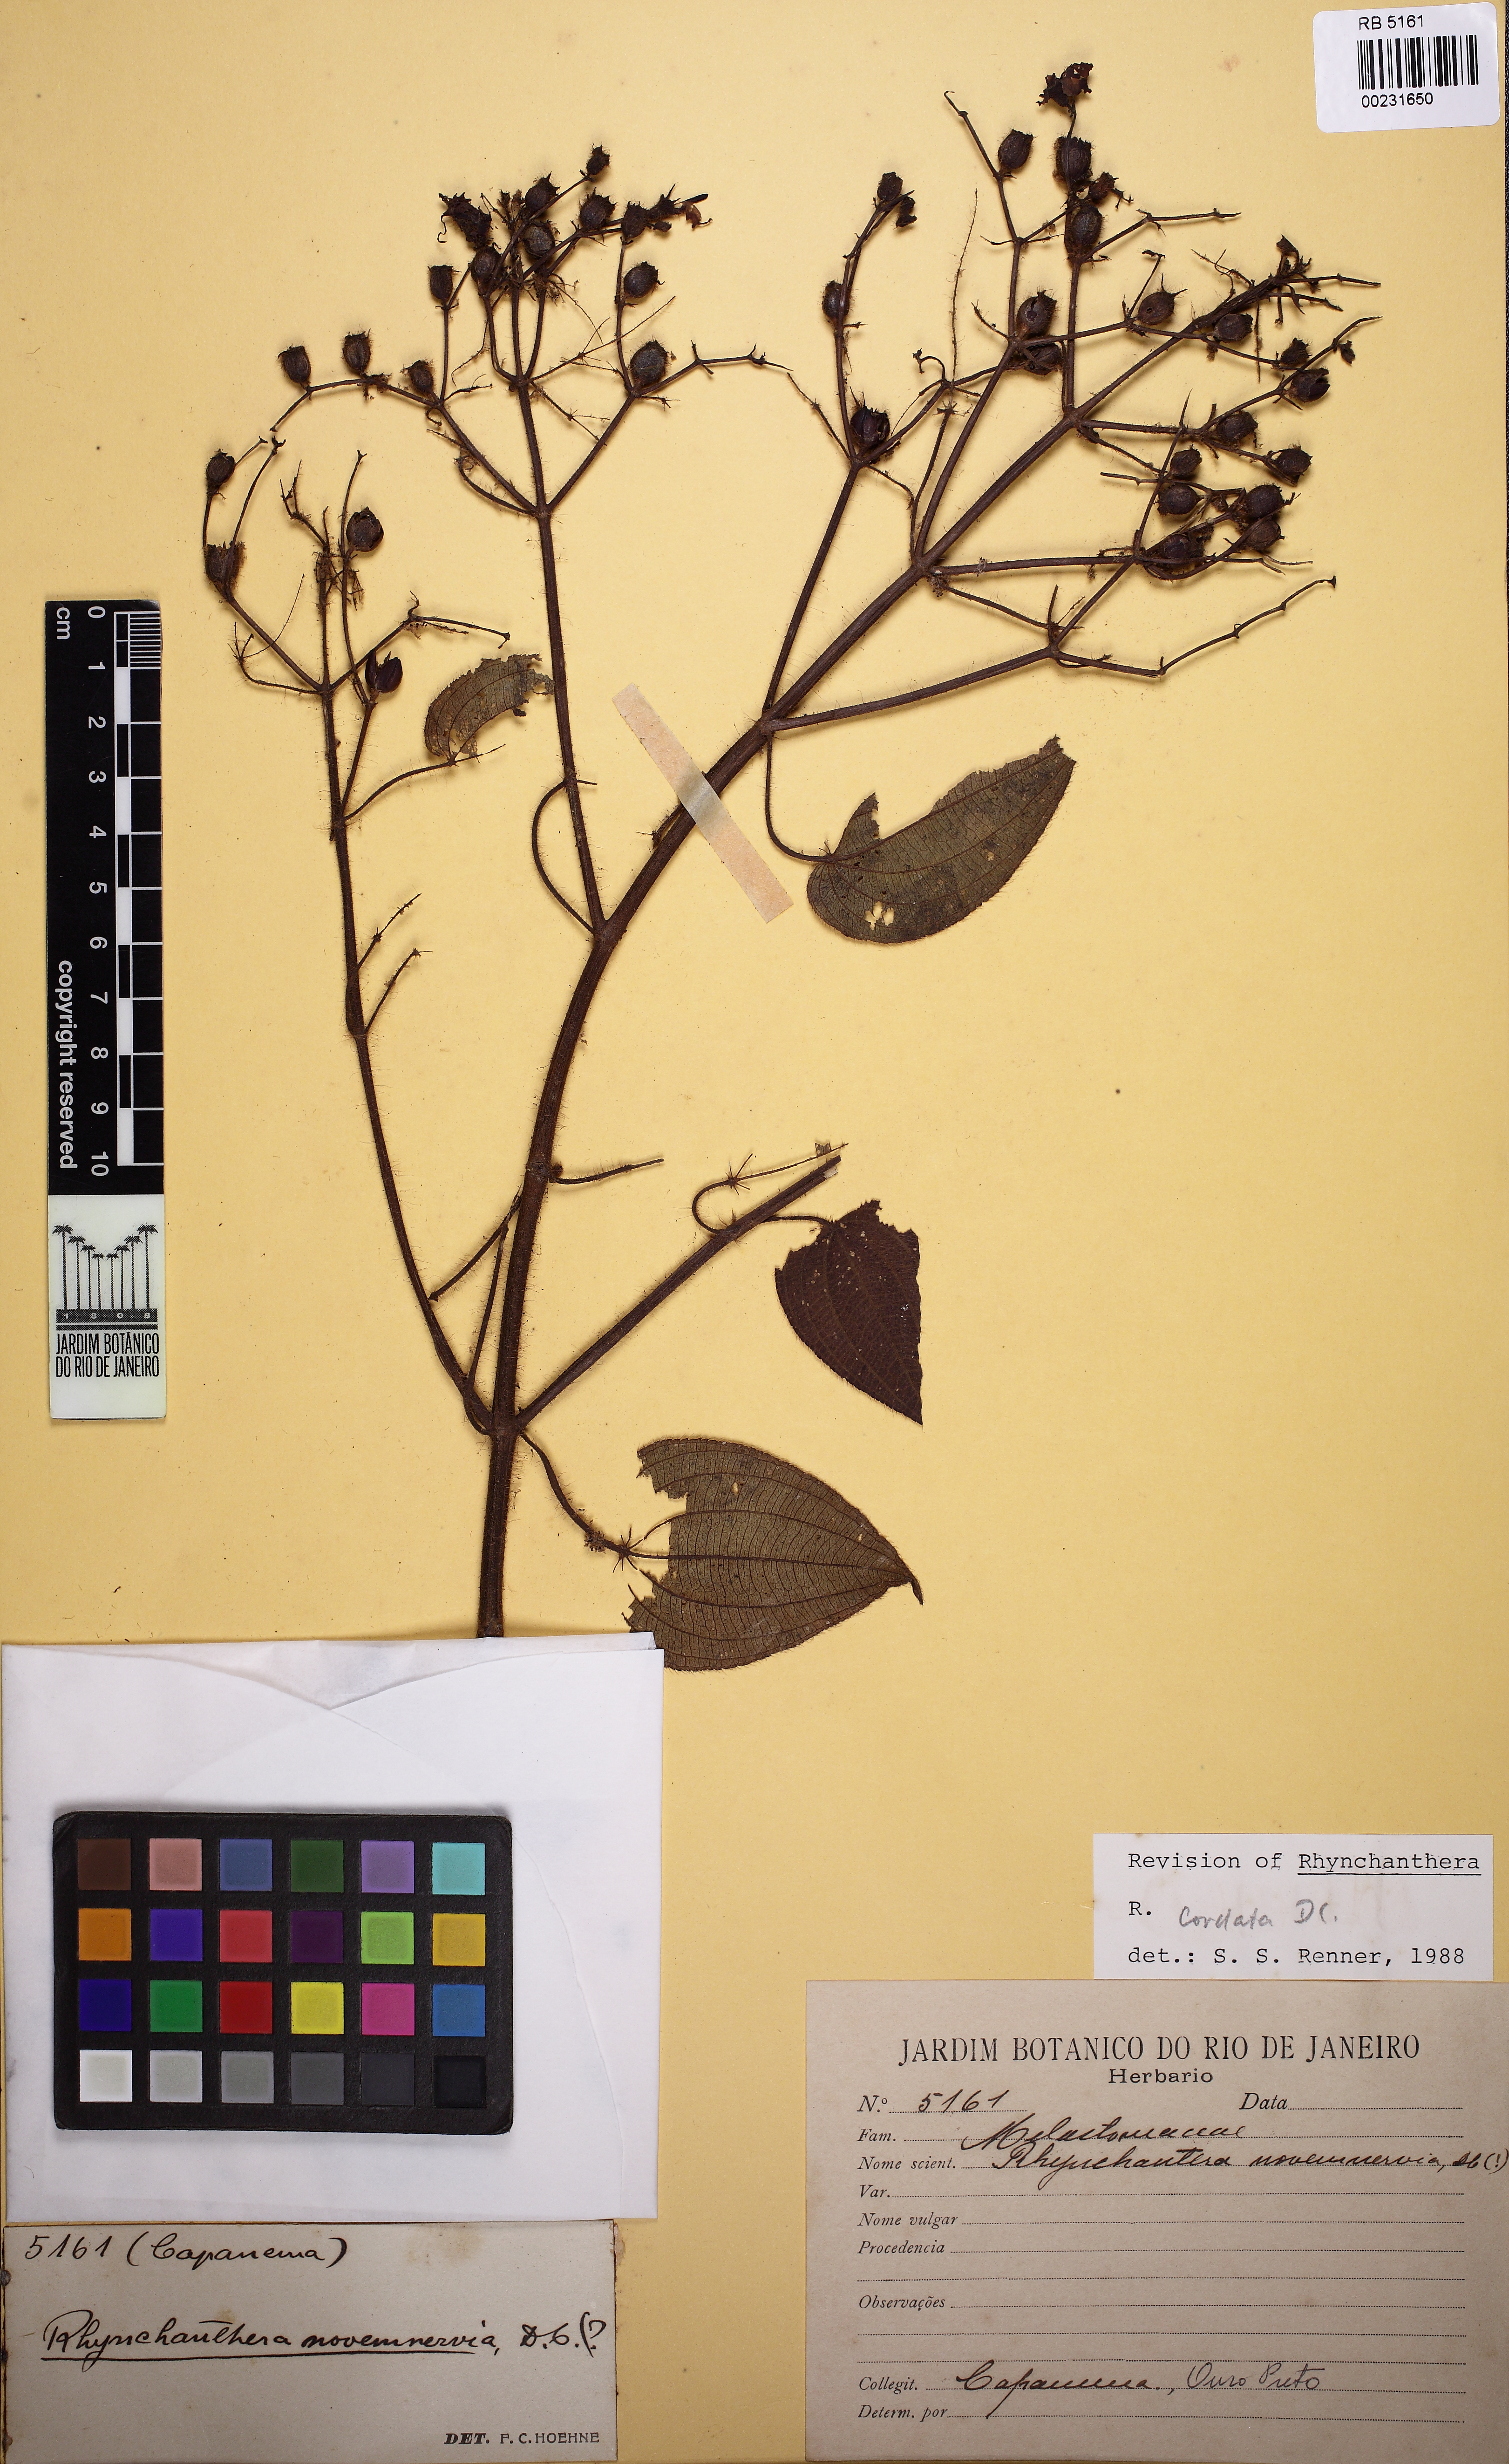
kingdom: Plantae
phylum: Tracheophyta
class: Magnoliopsida
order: Myrtales
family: Melastomataceae
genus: Rhynchanthera
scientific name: Rhynchanthera cordata
